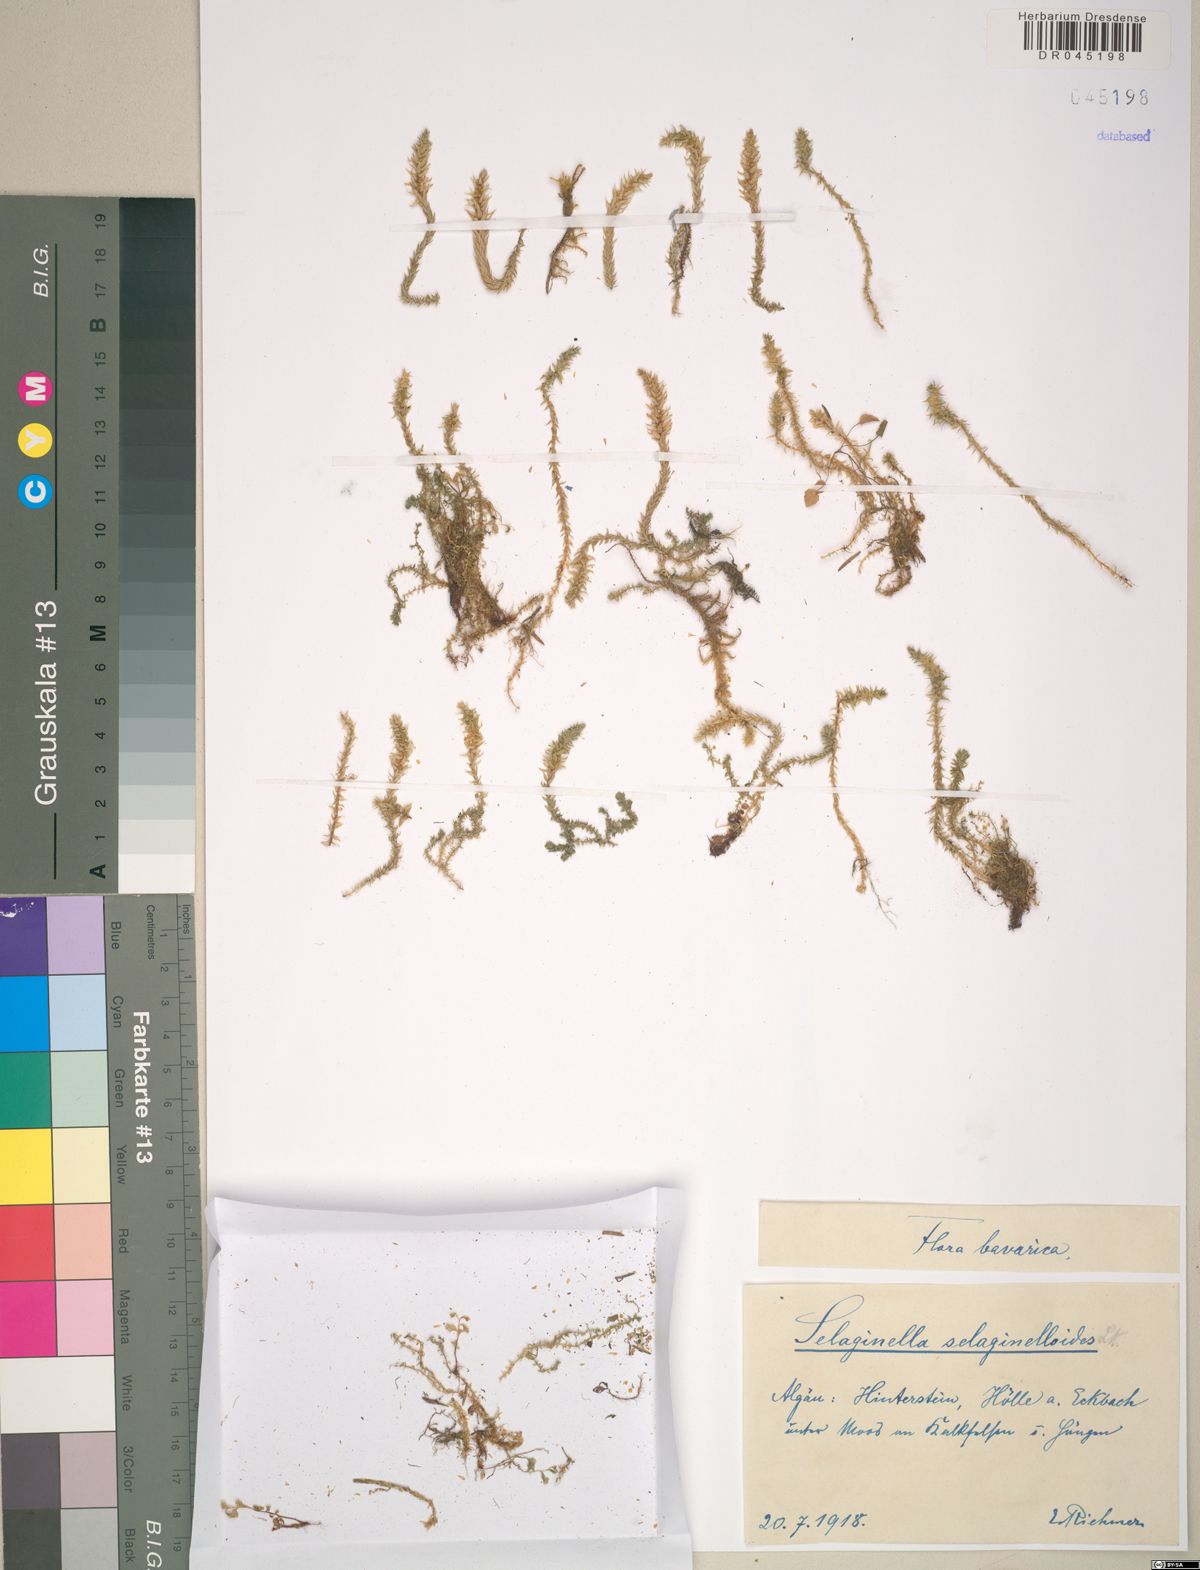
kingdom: Plantae
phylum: Tracheophyta
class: Lycopodiopsida
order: Selaginellales
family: Selaginellaceae
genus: Selaginella
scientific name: Selaginella selaginoides
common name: Prickly mountain-moss
